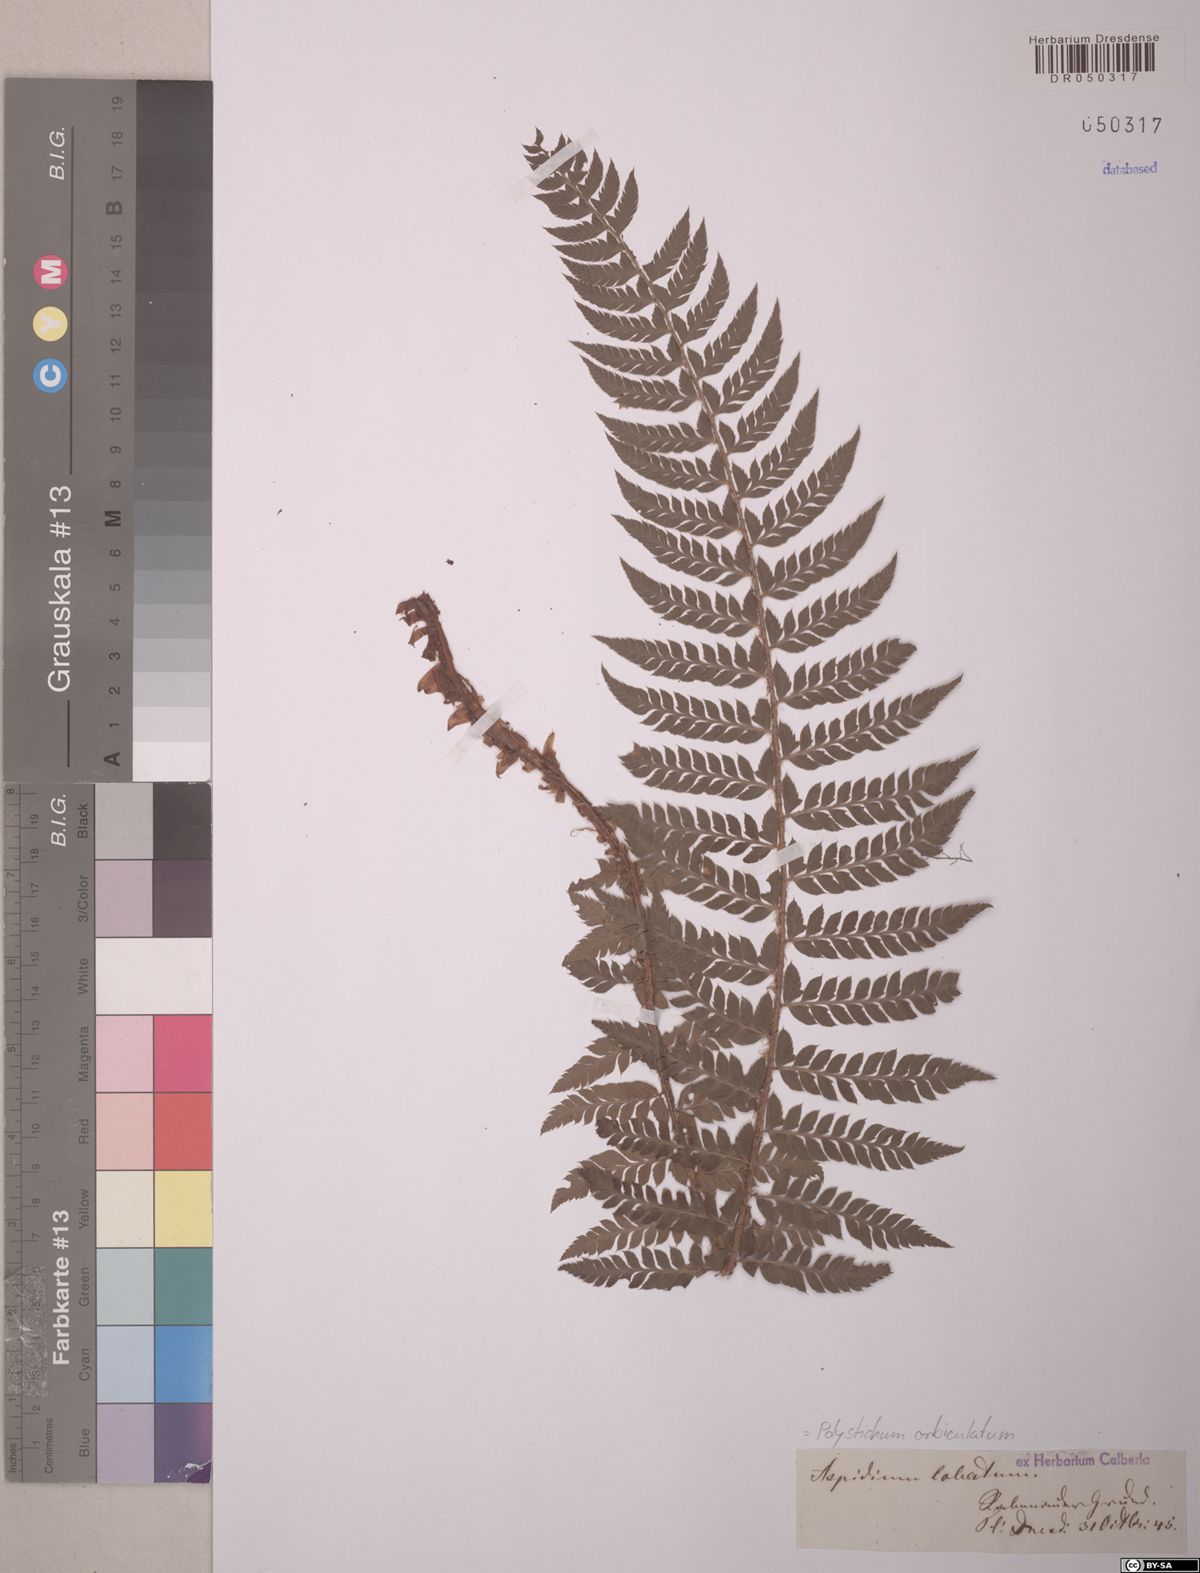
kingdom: Plantae
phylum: Tracheophyta
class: Polypodiopsida
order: Polypodiales
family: Dryopteridaceae
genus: Polystichum
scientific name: Polystichum aculeatum
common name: Hard shield-fern
